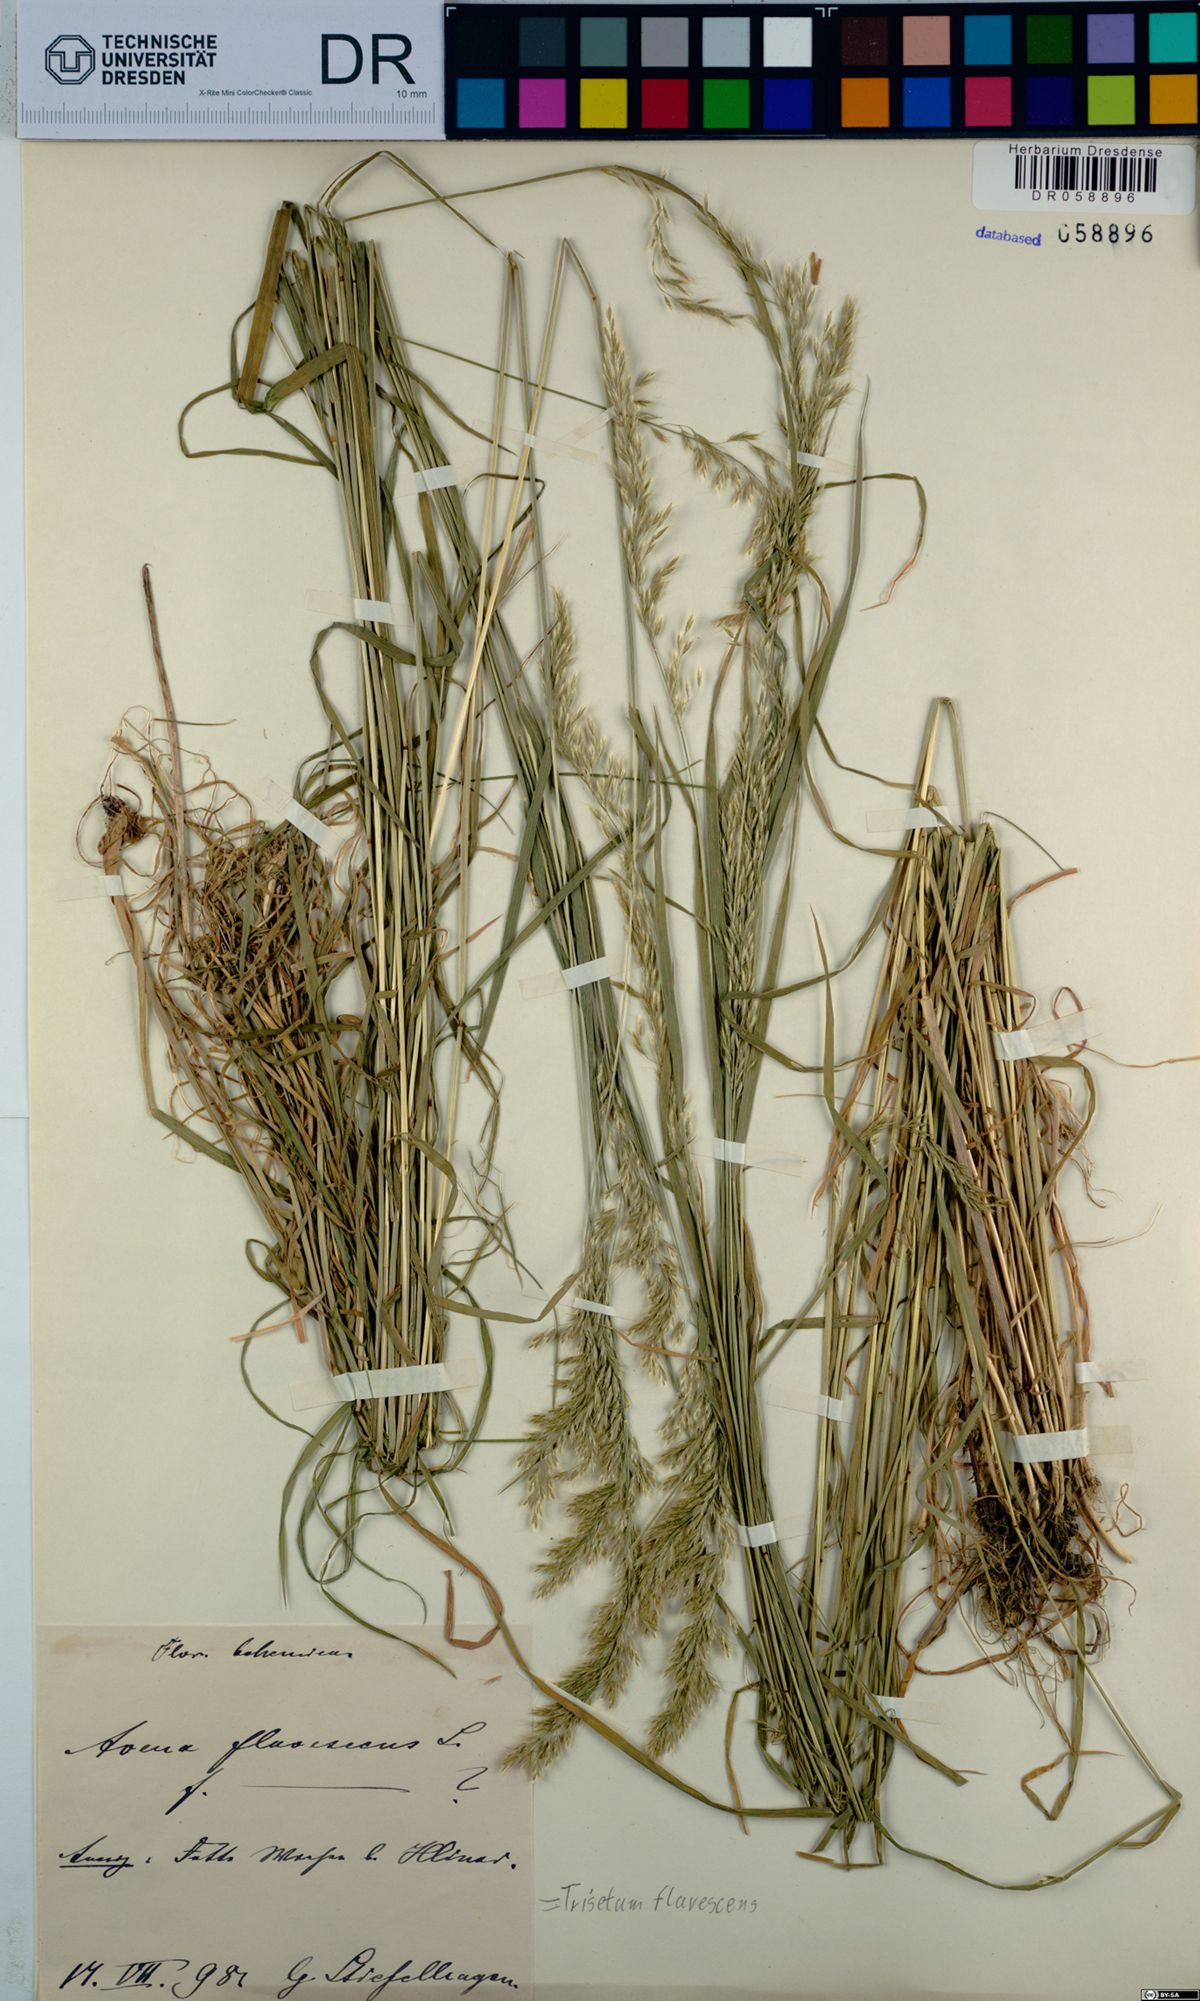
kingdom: Plantae
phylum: Tracheophyta
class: Liliopsida
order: Poales
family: Poaceae
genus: Trisetum
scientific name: Trisetum flavescens
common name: Yellow oat-grass
